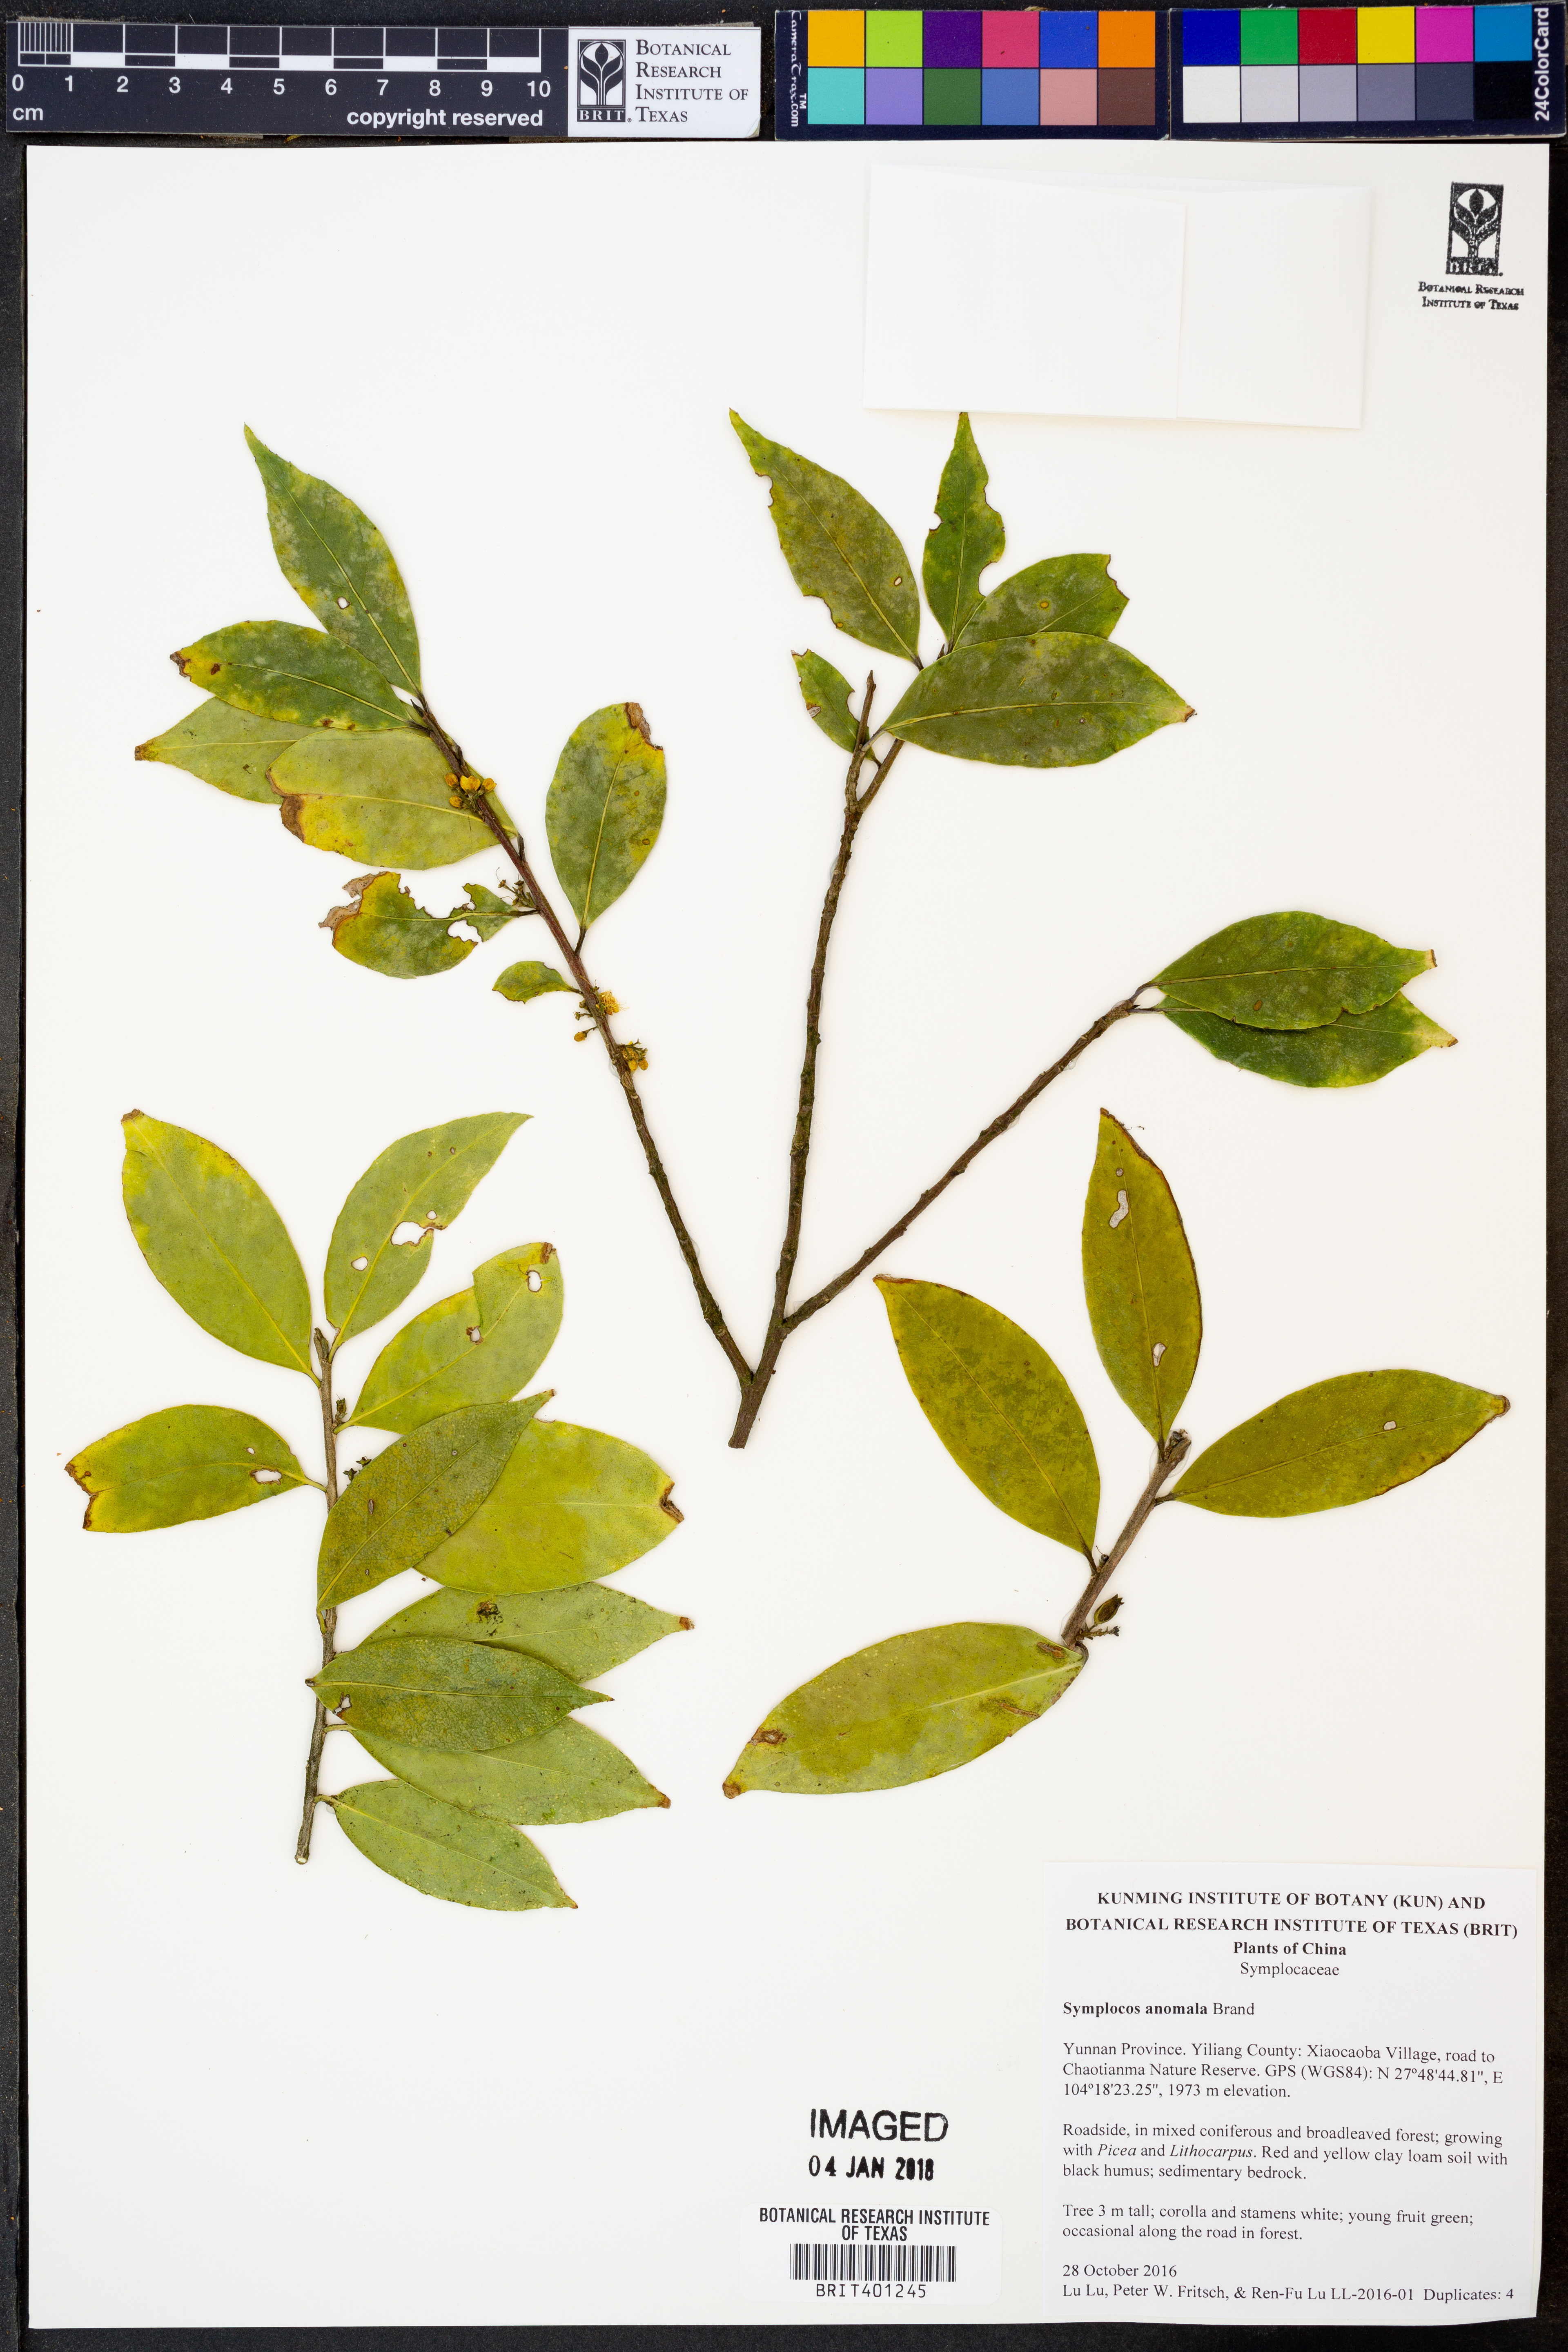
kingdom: Plantae
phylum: Tracheophyta
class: Magnoliopsida
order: Ericales
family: Symplocaceae
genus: Symplocos
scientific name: Symplocos anomala
